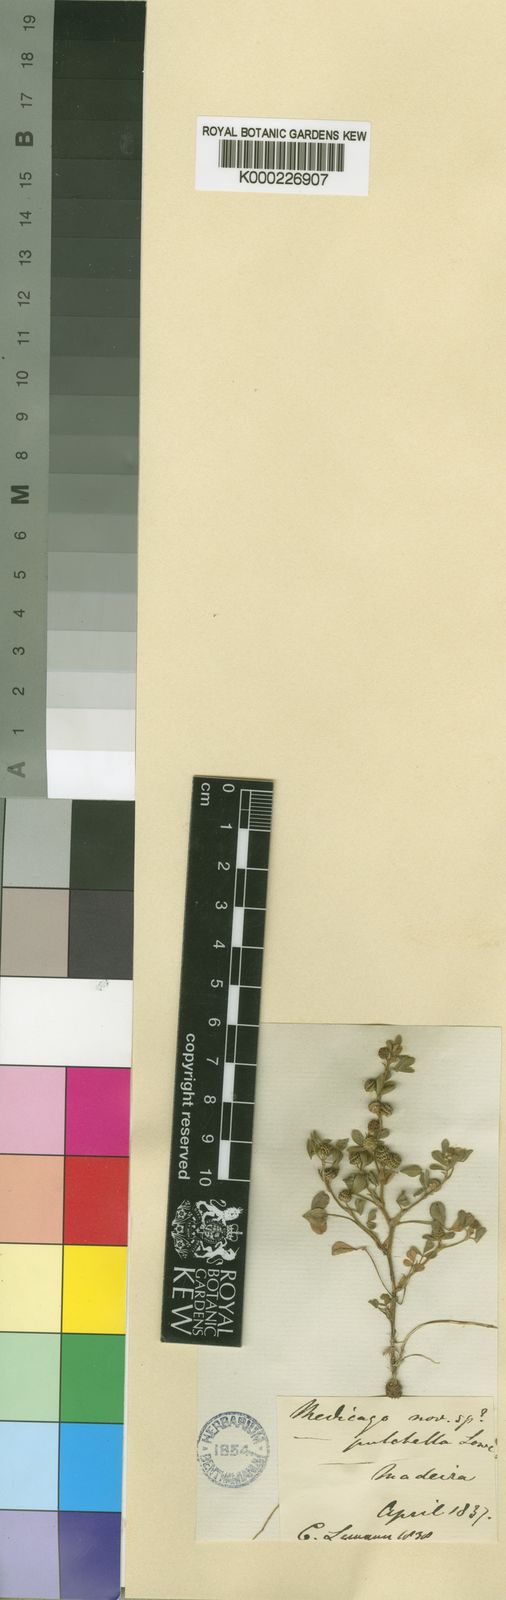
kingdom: Plantae
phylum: Tracheophyta
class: Magnoliopsida
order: Fabales
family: Fabaceae
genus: Medicago
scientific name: Medicago minima
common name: Little bur-clover
